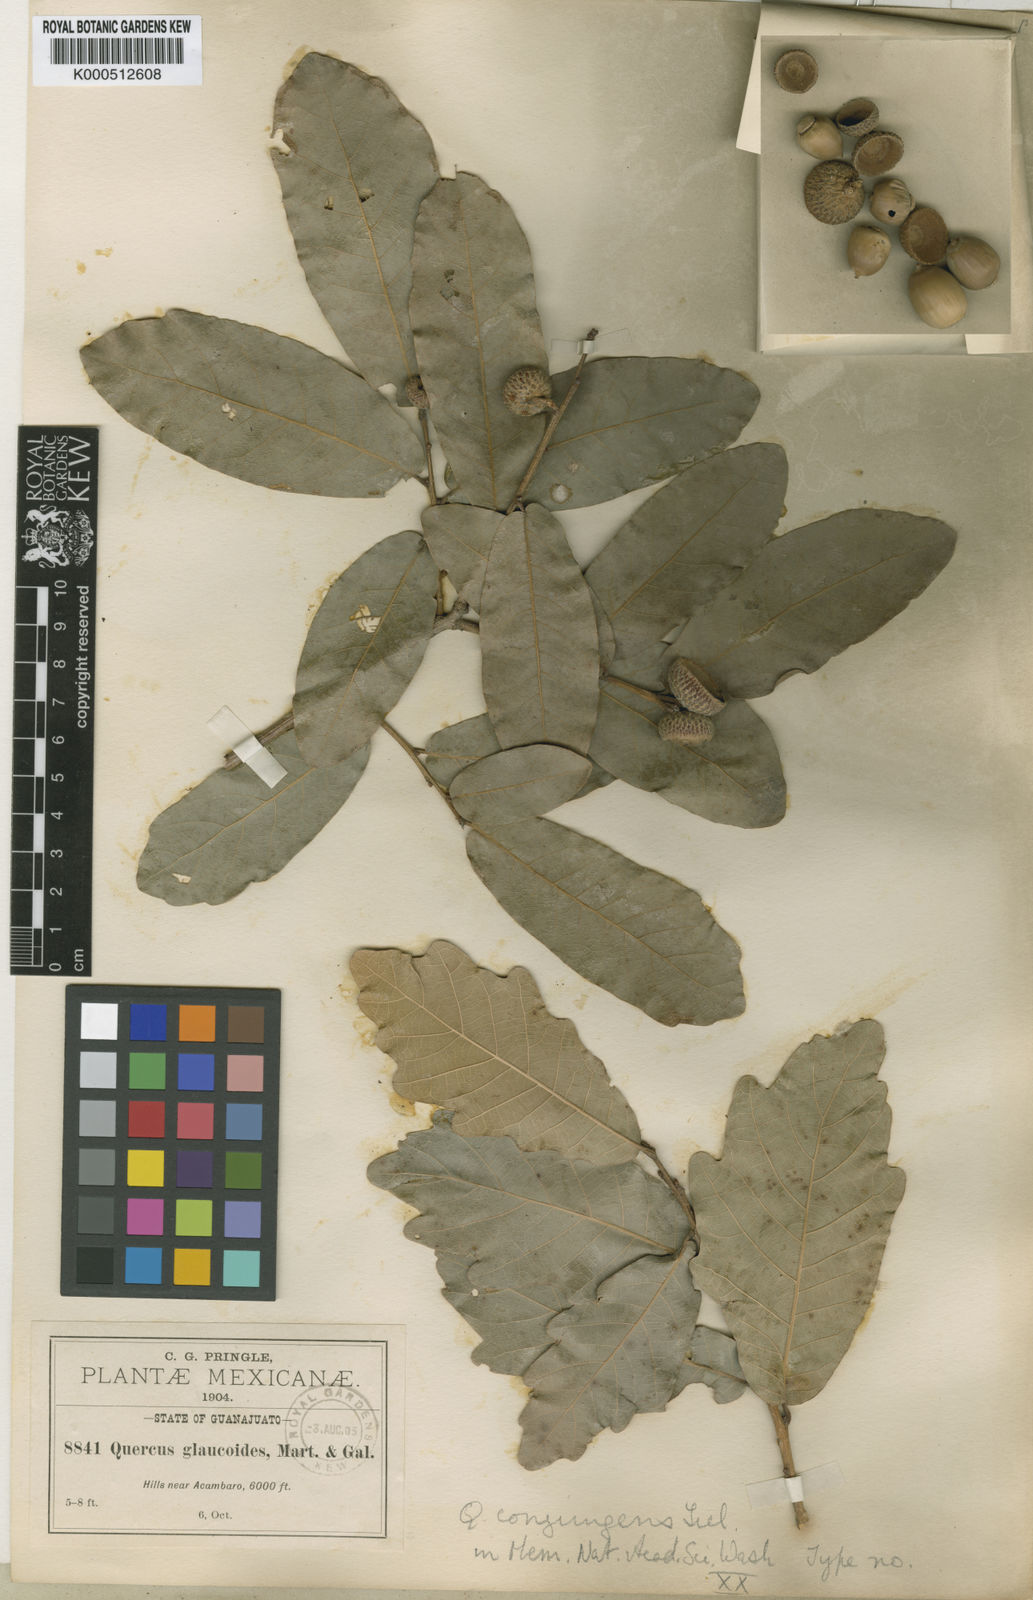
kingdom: Plantae
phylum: Tracheophyta
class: Magnoliopsida
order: Fagales
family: Fagaceae
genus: Quercus
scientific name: Quercus
